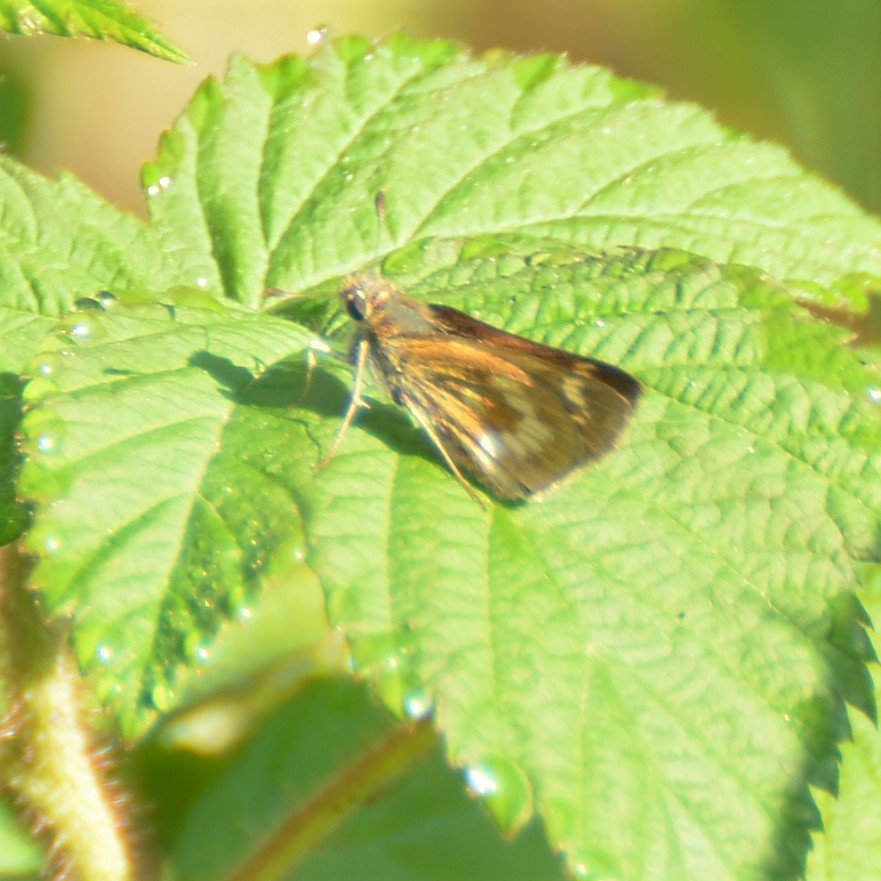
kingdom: Animalia
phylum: Arthropoda
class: Insecta
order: Lepidoptera
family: Hesperiidae
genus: Polites
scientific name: Polites
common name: Long Dash Skipper
